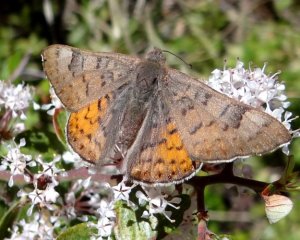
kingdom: Animalia
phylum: Arthropoda
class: Insecta
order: Lepidoptera
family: Lycaenidae
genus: Emesis
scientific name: Emesis zela
